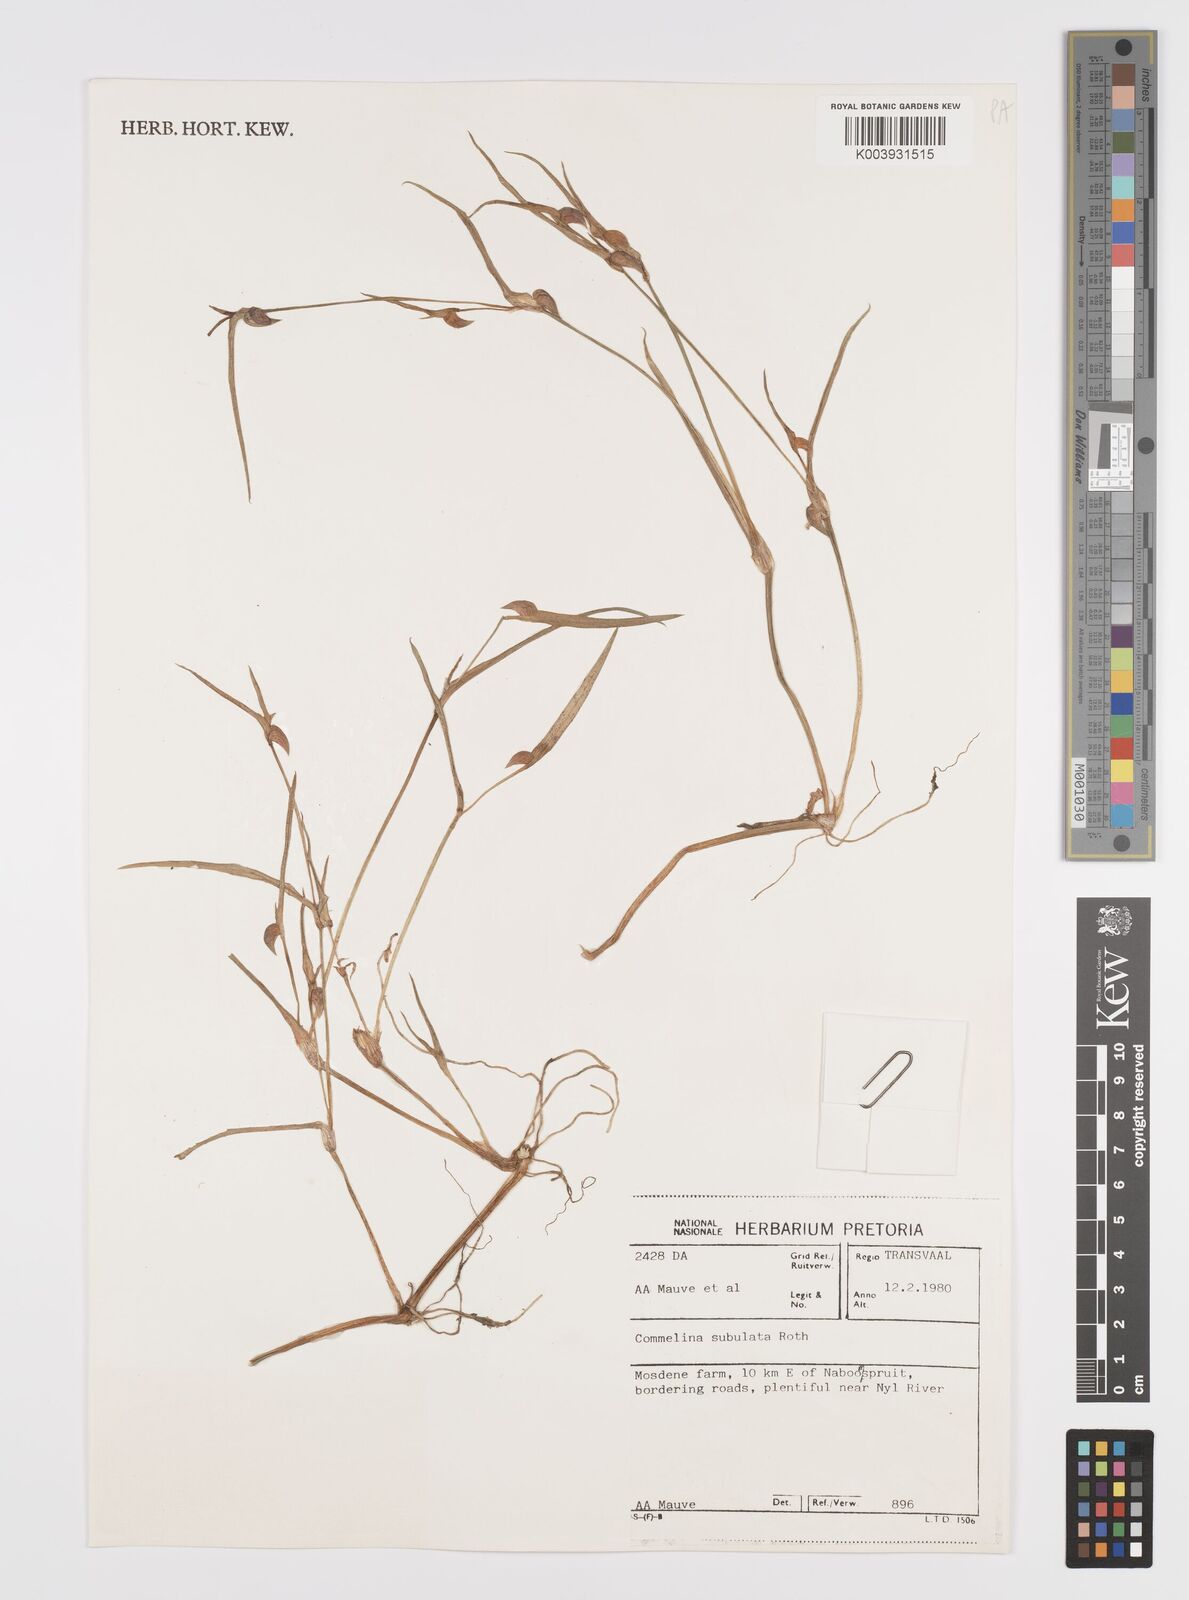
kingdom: Plantae
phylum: Tracheophyta
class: Liliopsida
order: Commelinales
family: Commelinaceae
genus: Commelina
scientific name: Commelina subulata
